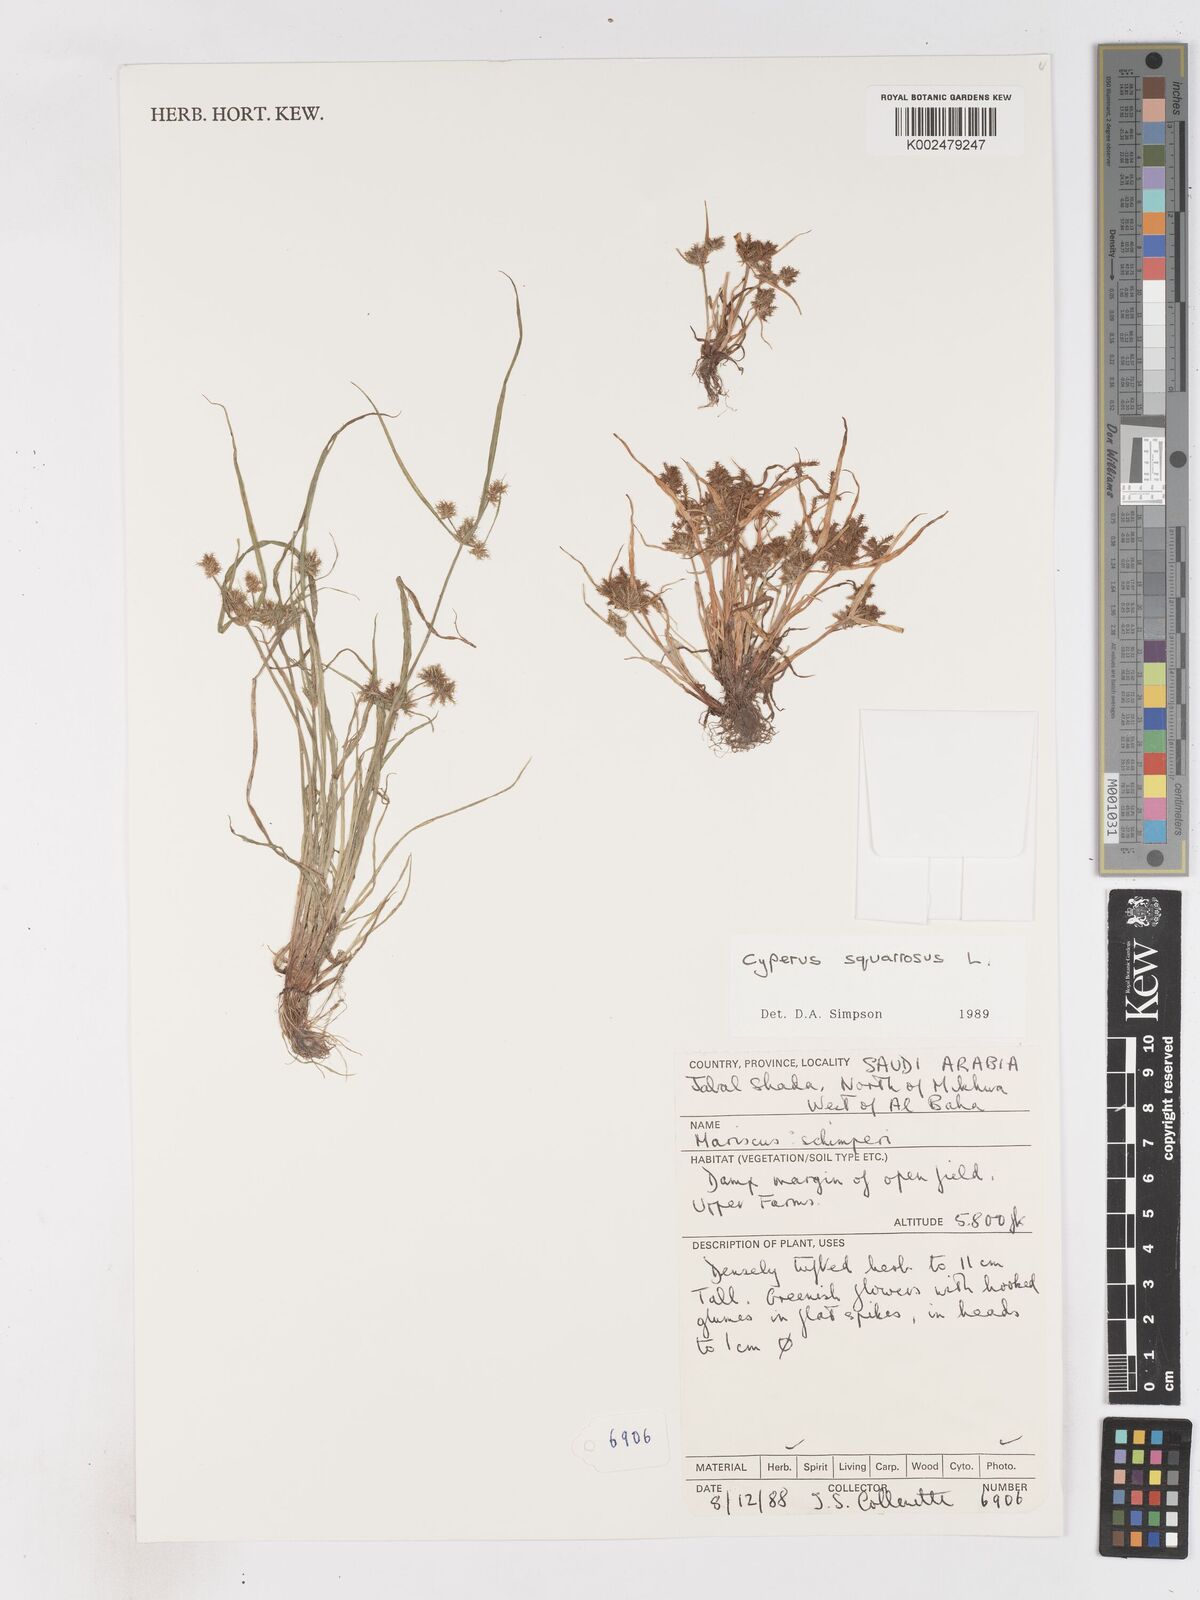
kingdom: Plantae
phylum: Tracheophyta
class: Liliopsida
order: Poales
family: Cyperaceae
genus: Cyperus
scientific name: Cyperus squarrosus
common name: Awned cyperus
